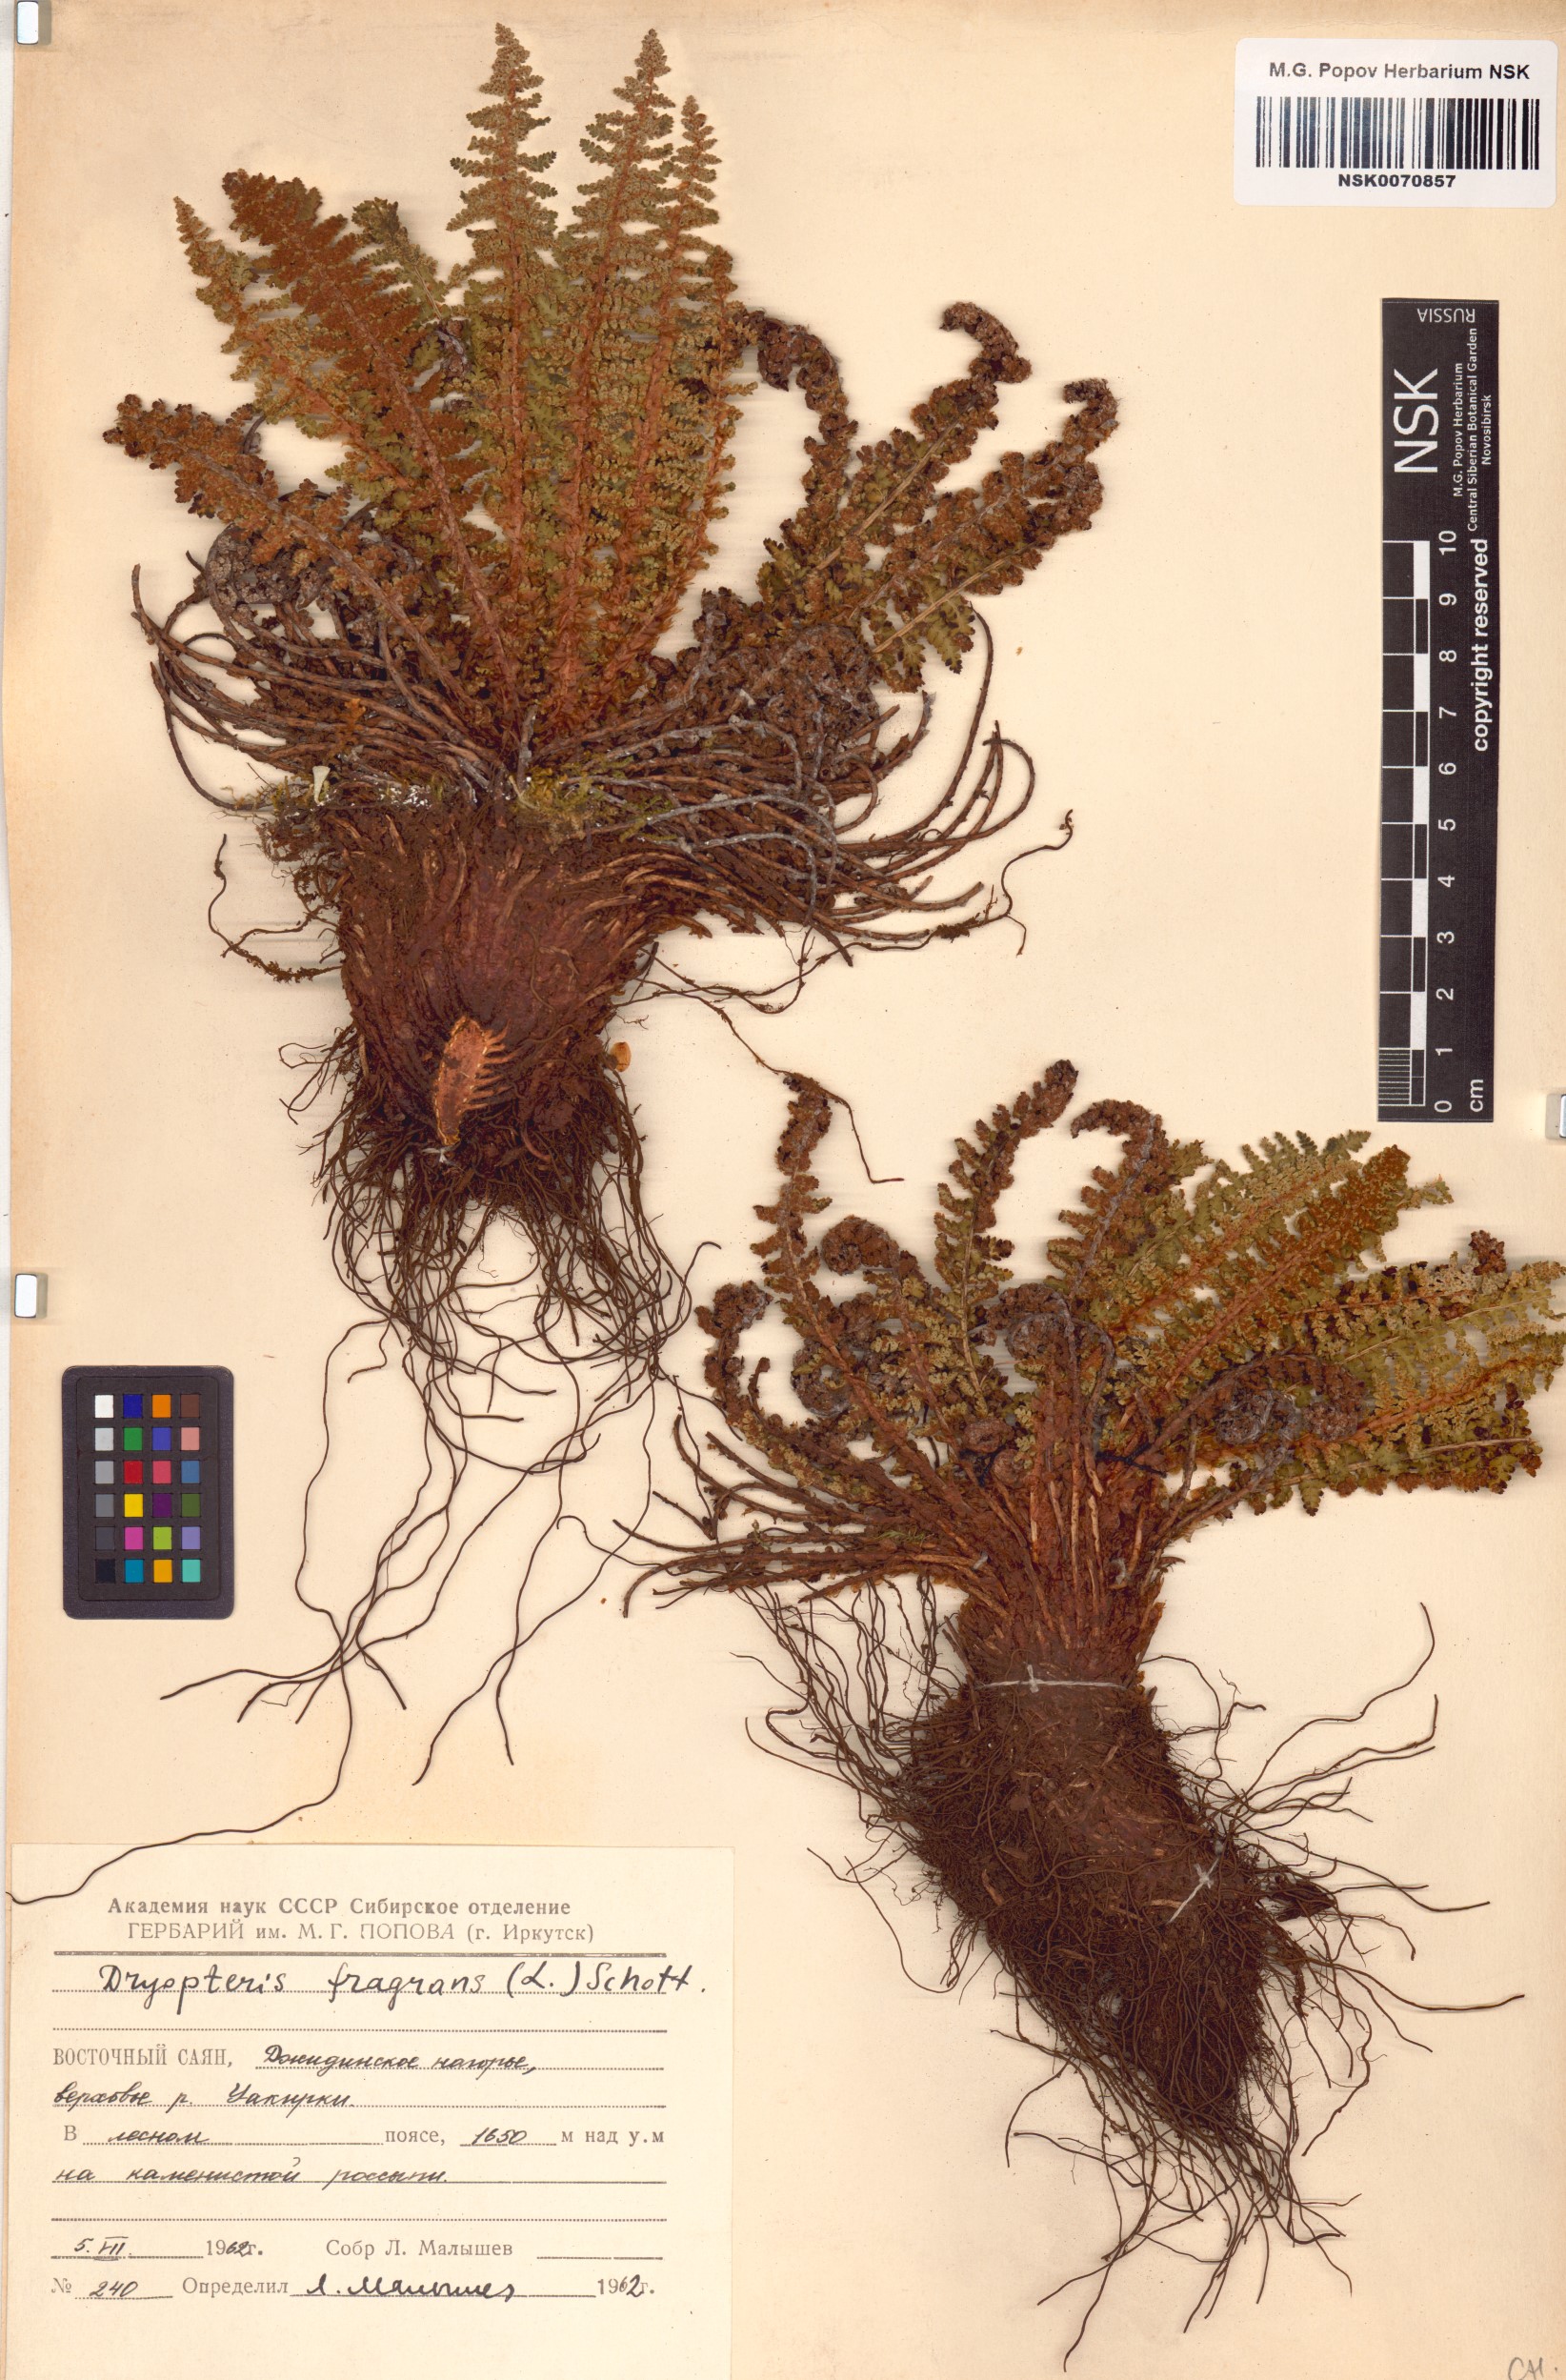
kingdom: Plantae
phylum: Tracheophyta
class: Polypodiopsida
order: Polypodiales
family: Dryopteridaceae
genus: Dryopteris
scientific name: Dryopteris fragrans
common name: Fragrant wood fern
